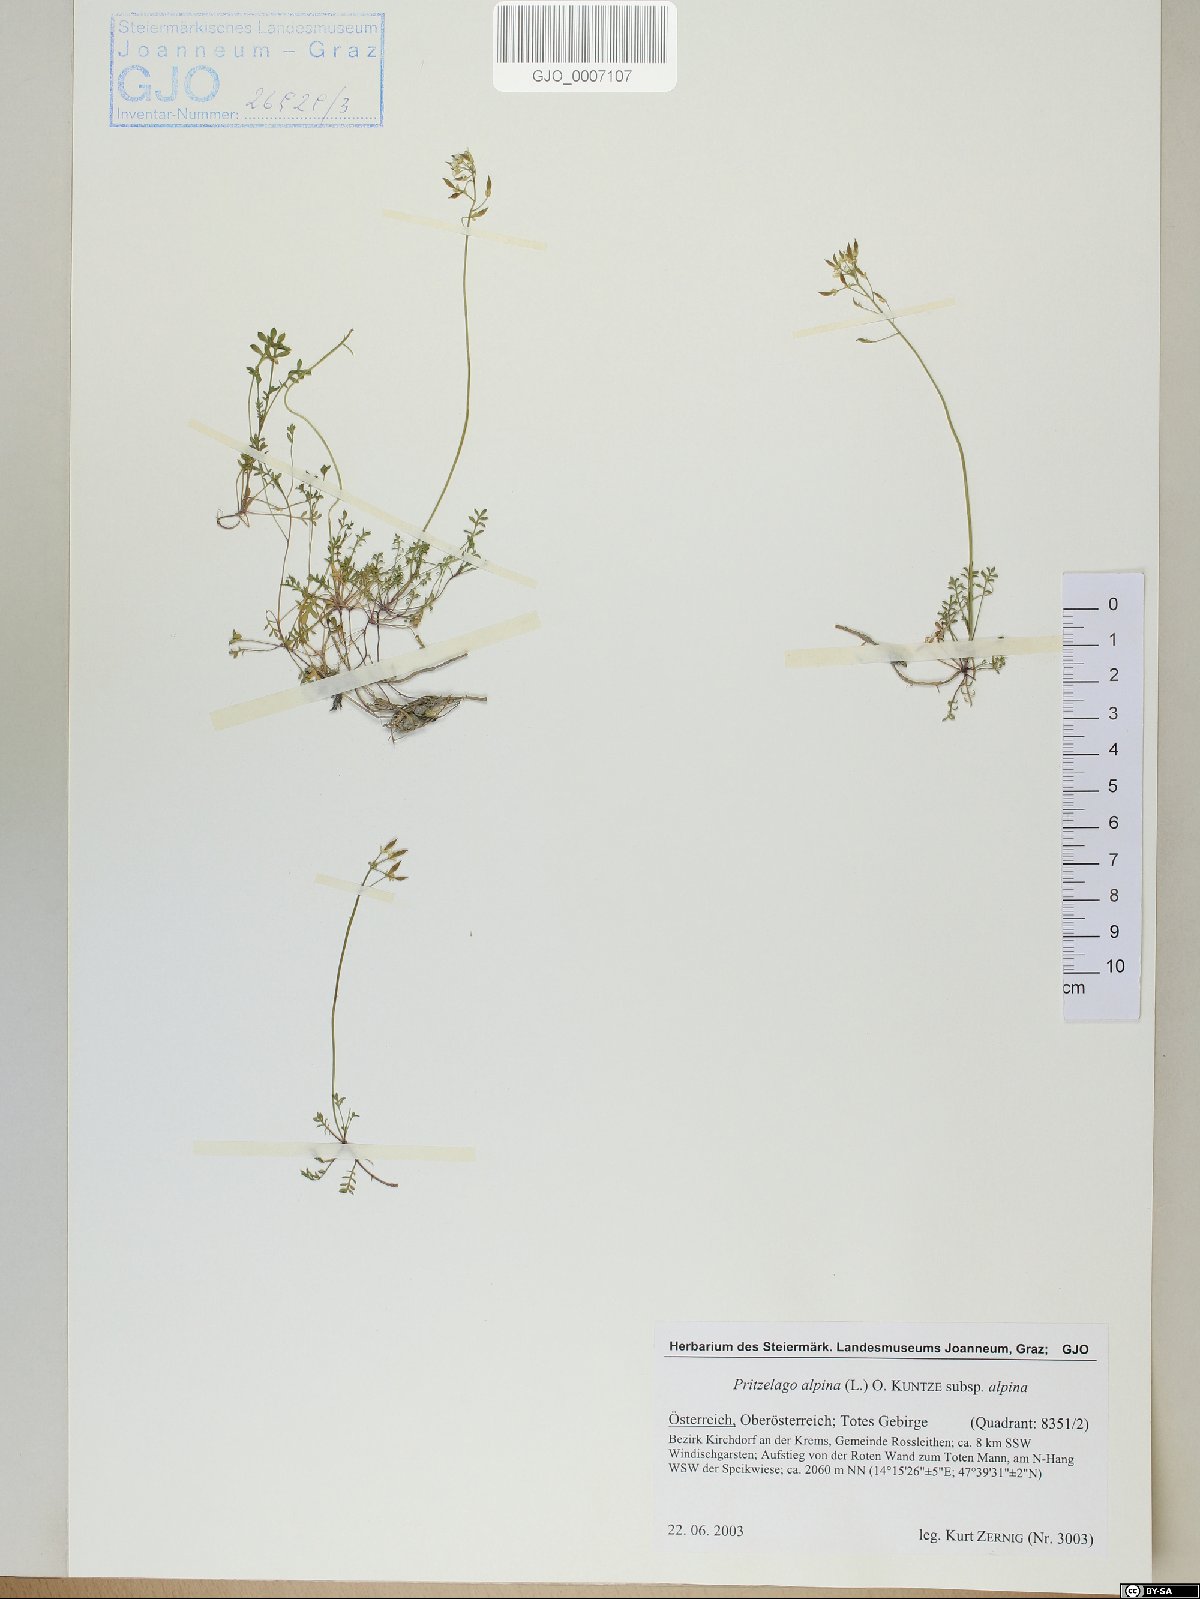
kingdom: Plantae
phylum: Tracheophyta
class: Magnoliopsida
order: Brassicales
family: Brassicaceae
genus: Hornungia
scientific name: Hornungia alpina
